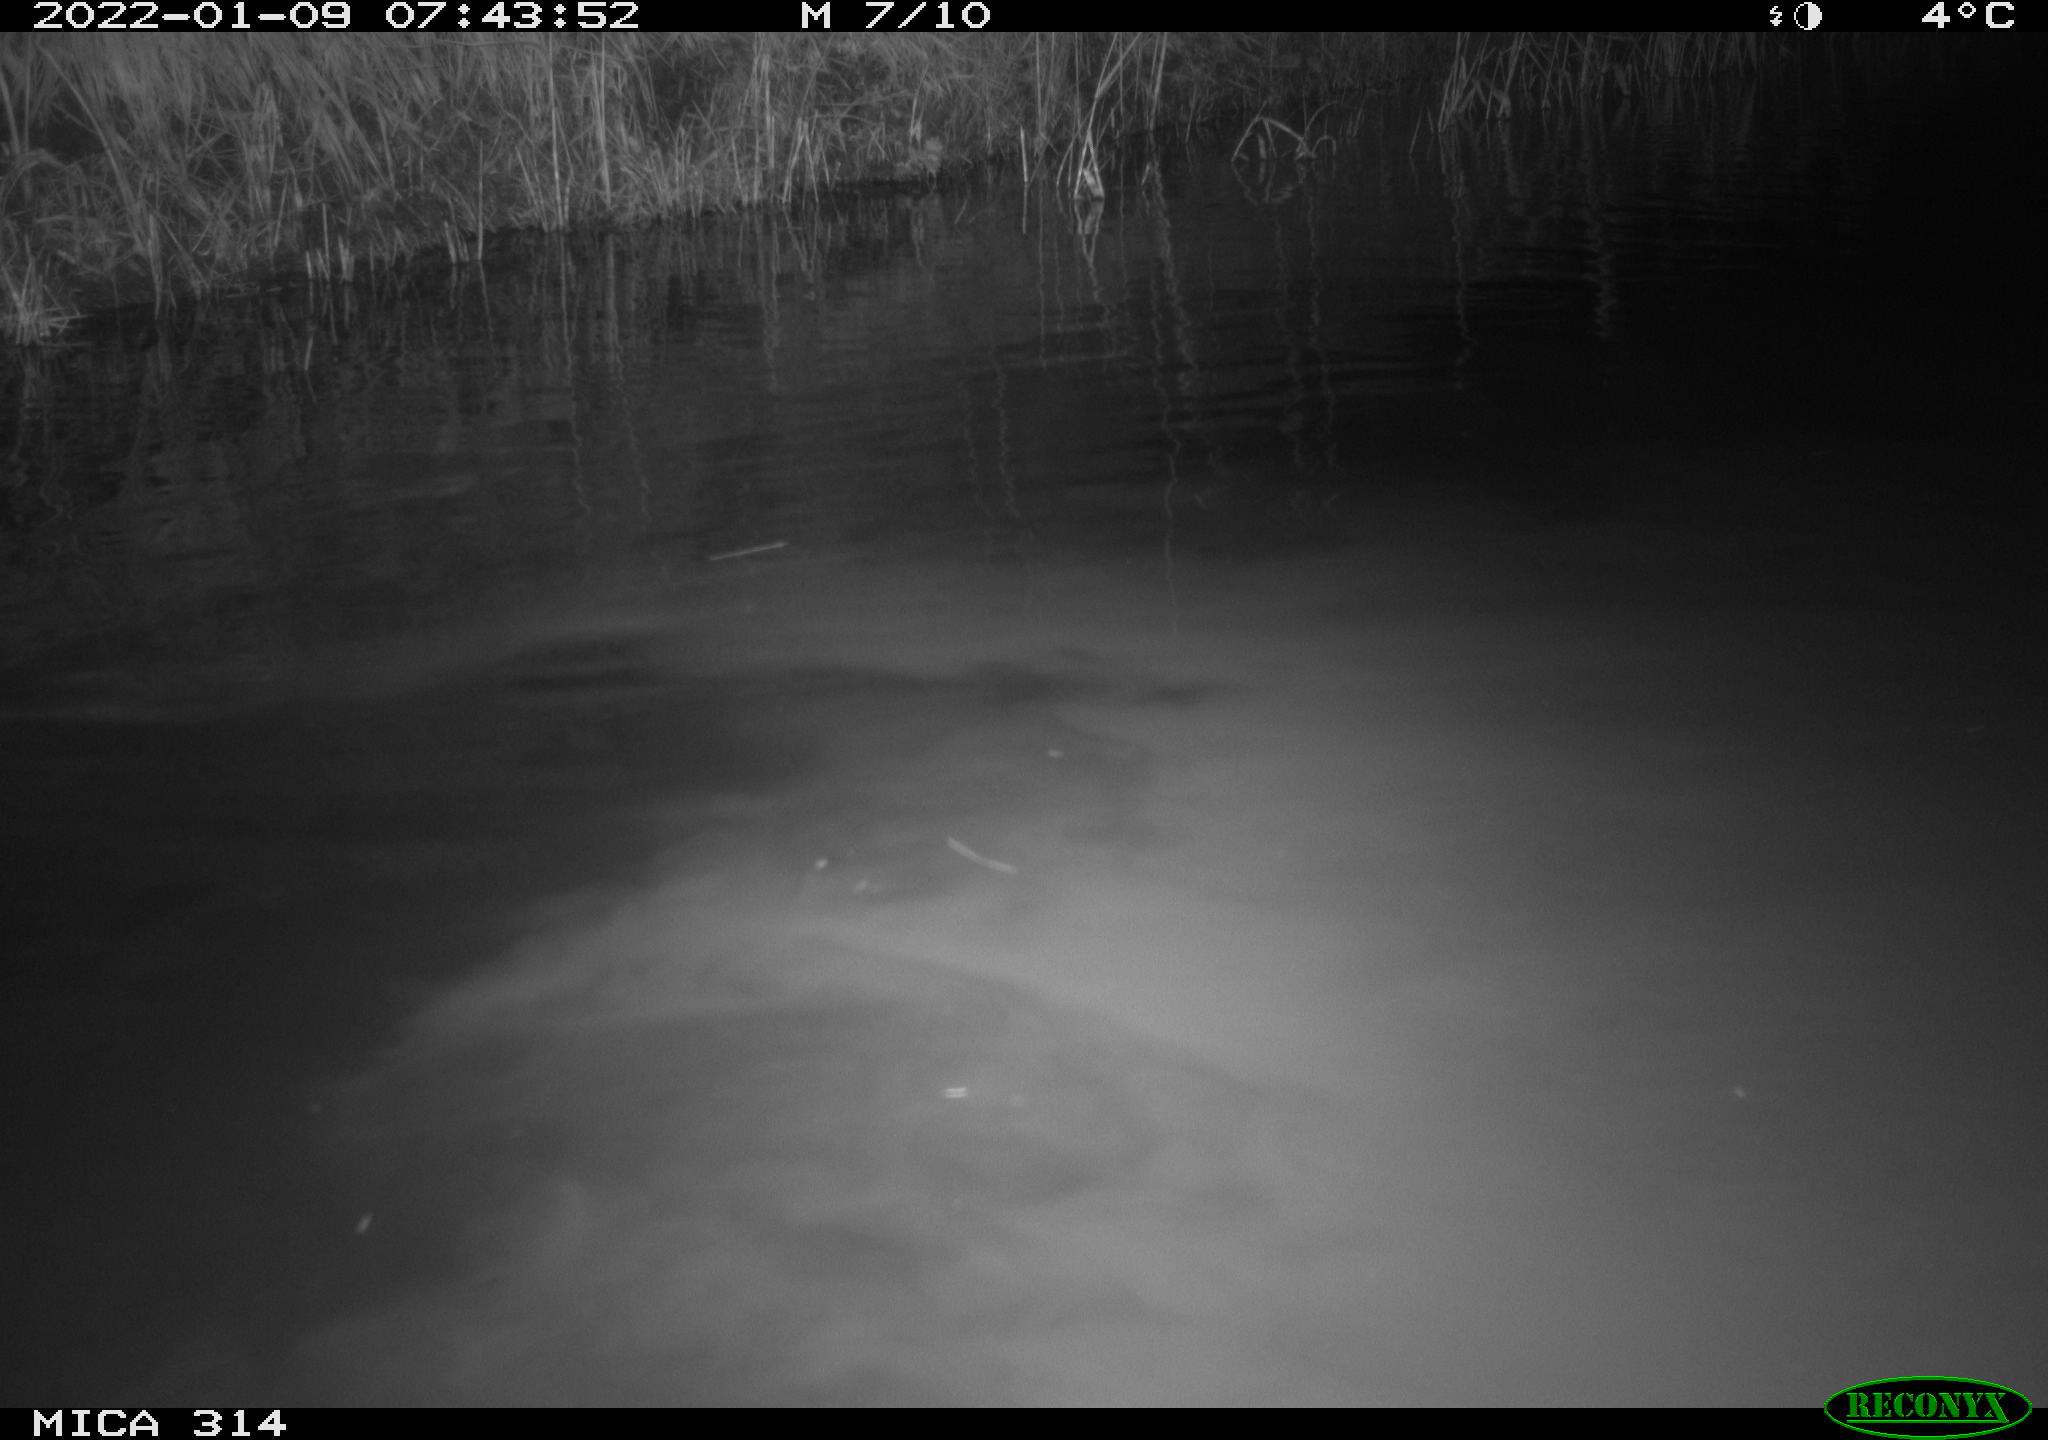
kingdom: Animalia
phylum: Chordata
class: Mammalia
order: Rodentia
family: Cricetidae
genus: Ondatra
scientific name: Ondatra zibethicus
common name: Muskrat
